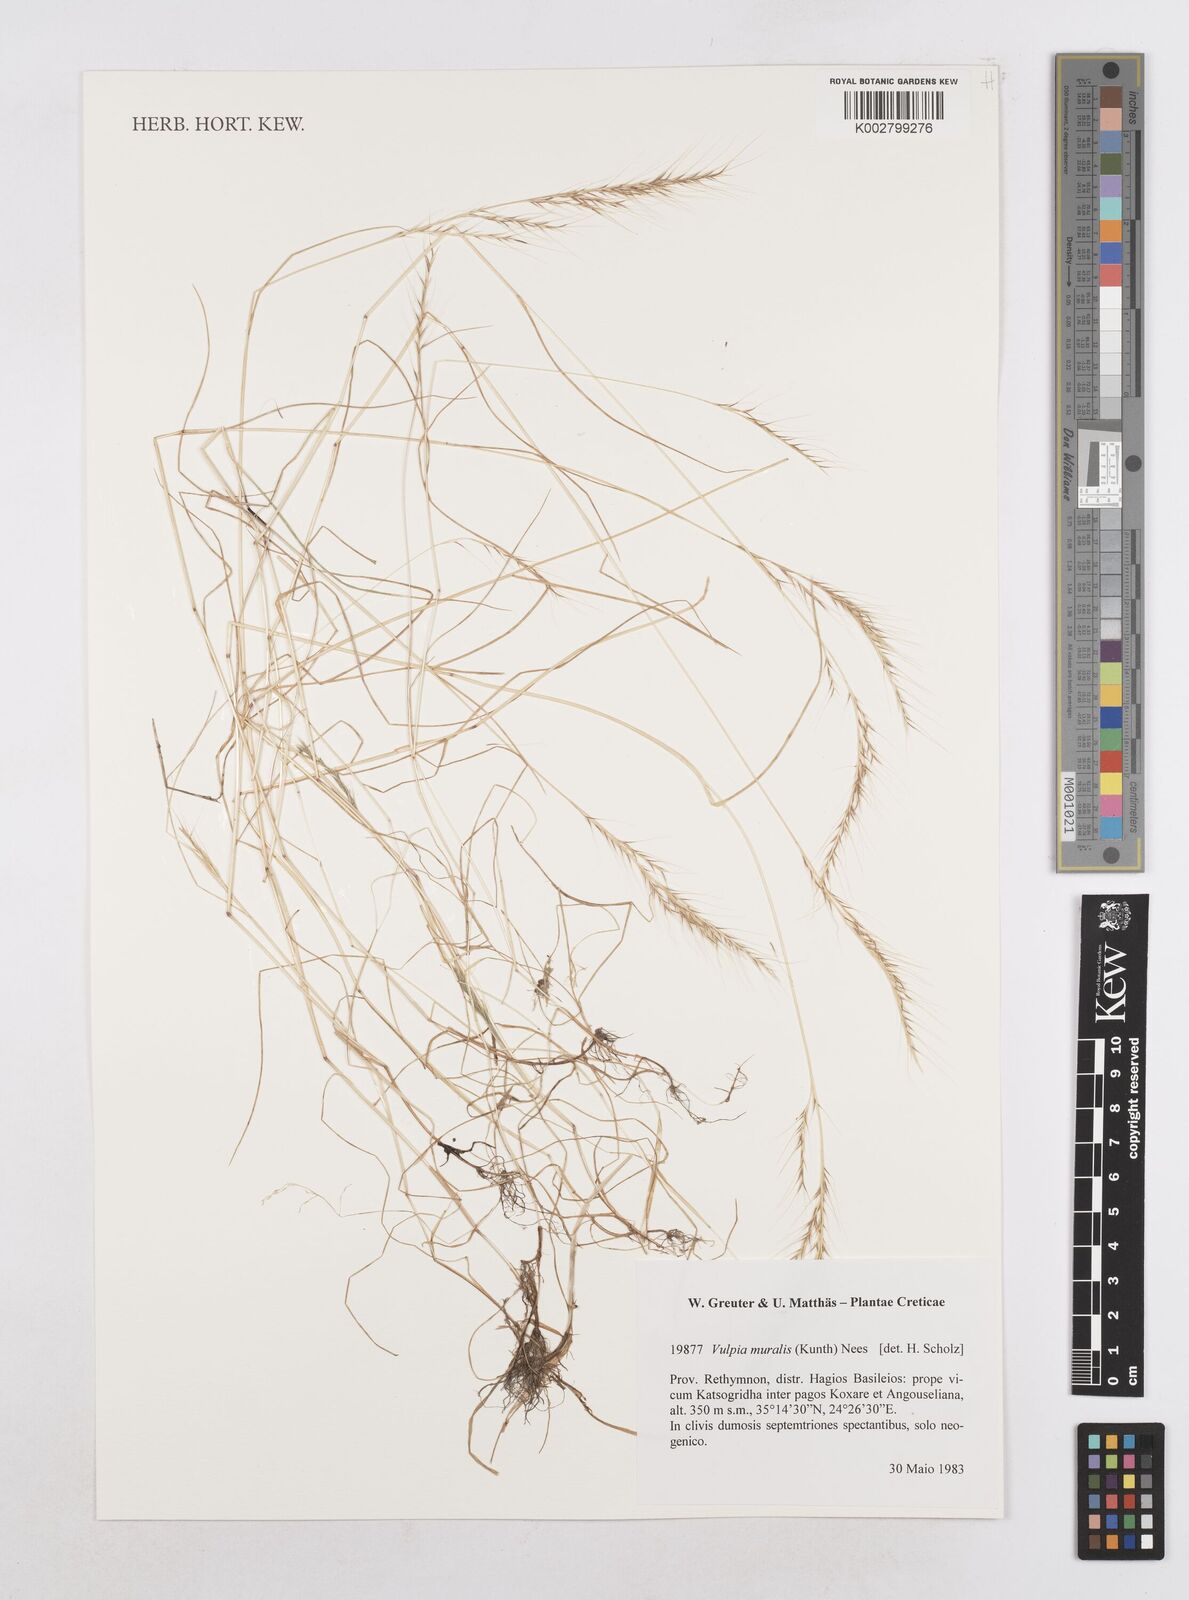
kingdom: Plantae
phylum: Tracheophyta
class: Liliopsida
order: Poales
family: Poaceae
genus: Festuca
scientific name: Festuca muralis
